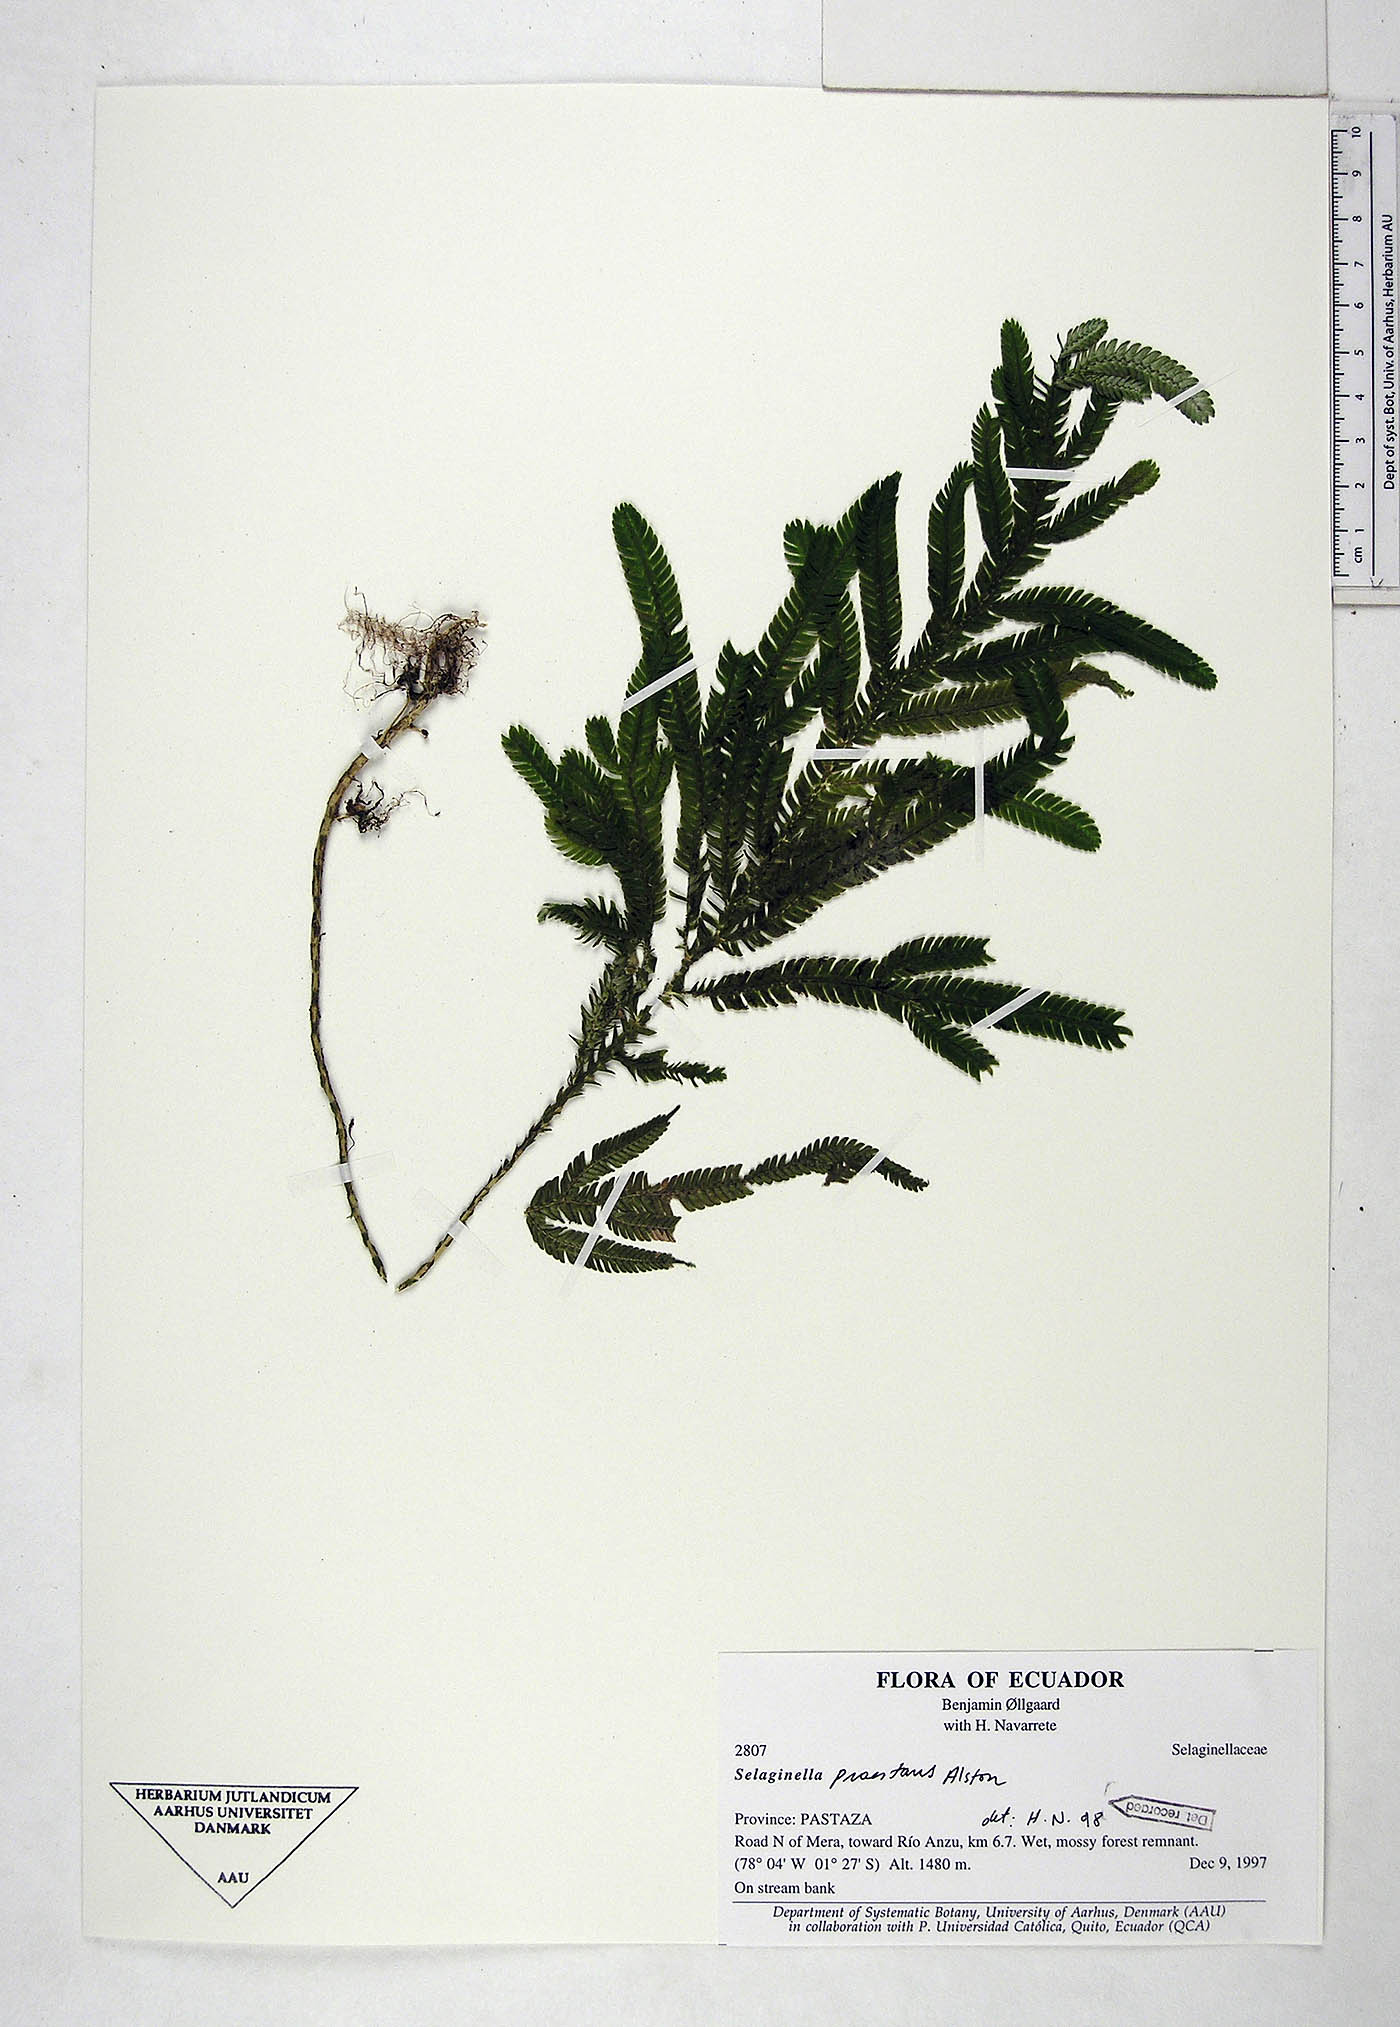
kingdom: Plantae
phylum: Tracheophyta
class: Lycopodiopsida
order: Selaginellales
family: Selaginellaceae
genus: Selaginella
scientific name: Selaginella praestans
